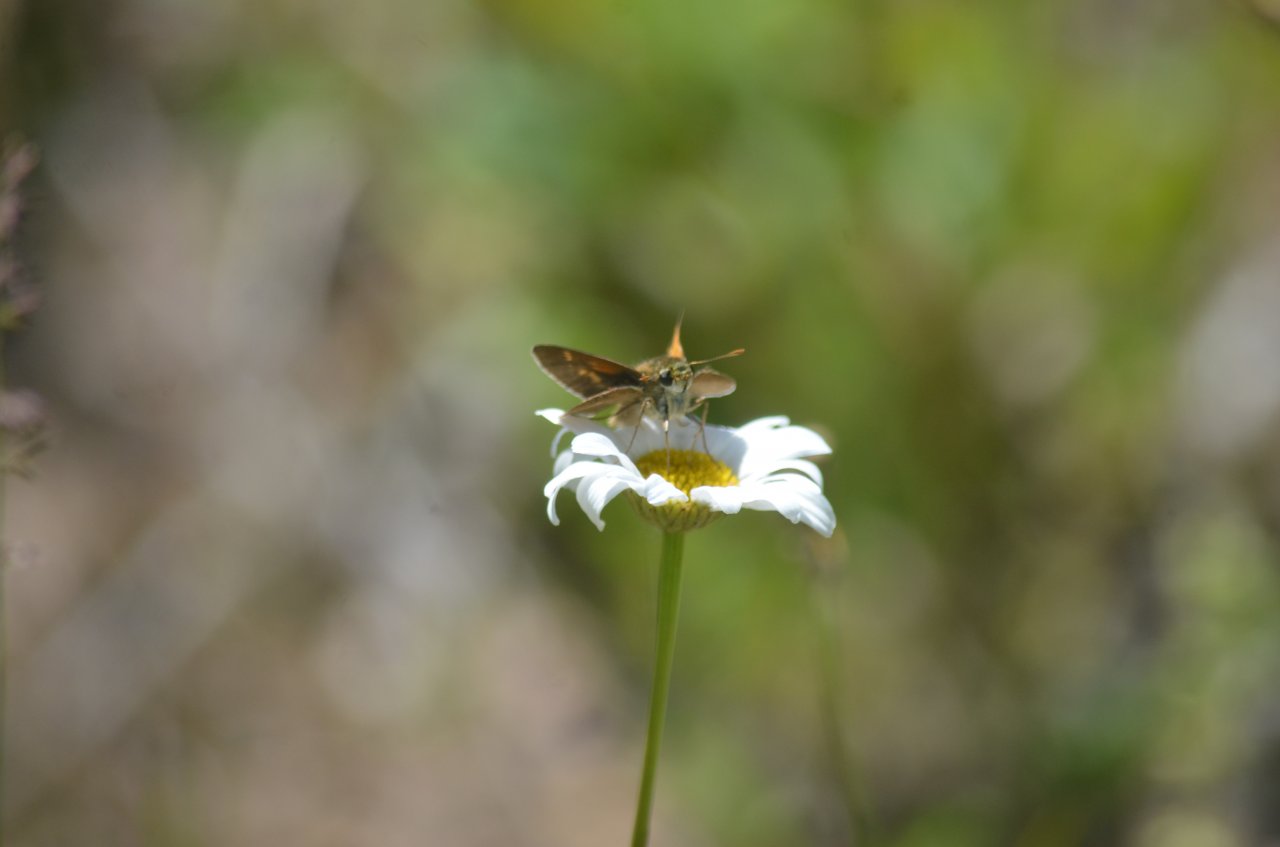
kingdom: Animalia
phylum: Arthropoda
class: Insecta
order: Lepidoptera
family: Hesperiidae
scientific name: Hesperiidae
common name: Skippers
